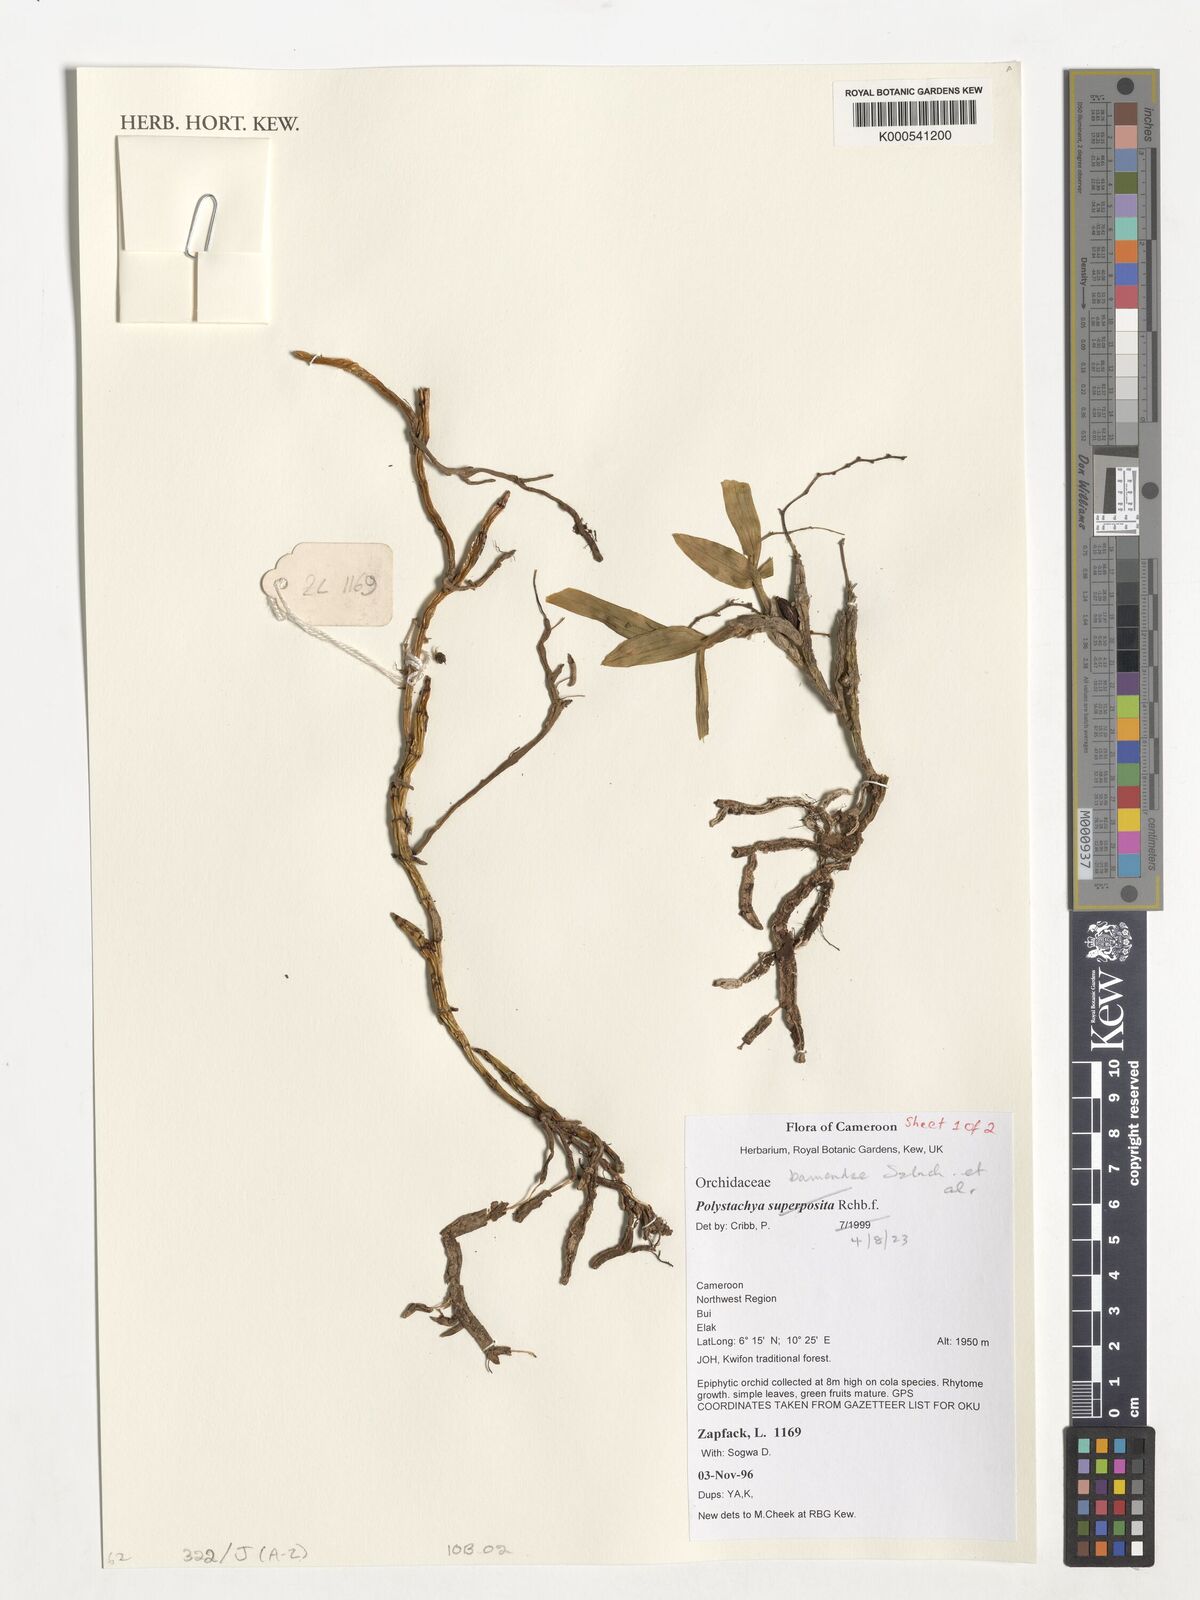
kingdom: Plantae
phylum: Tracheophyta
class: Liliopsida
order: Asparagales
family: Orchidaceae
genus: Polystachya
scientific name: Polystachya bamendae
